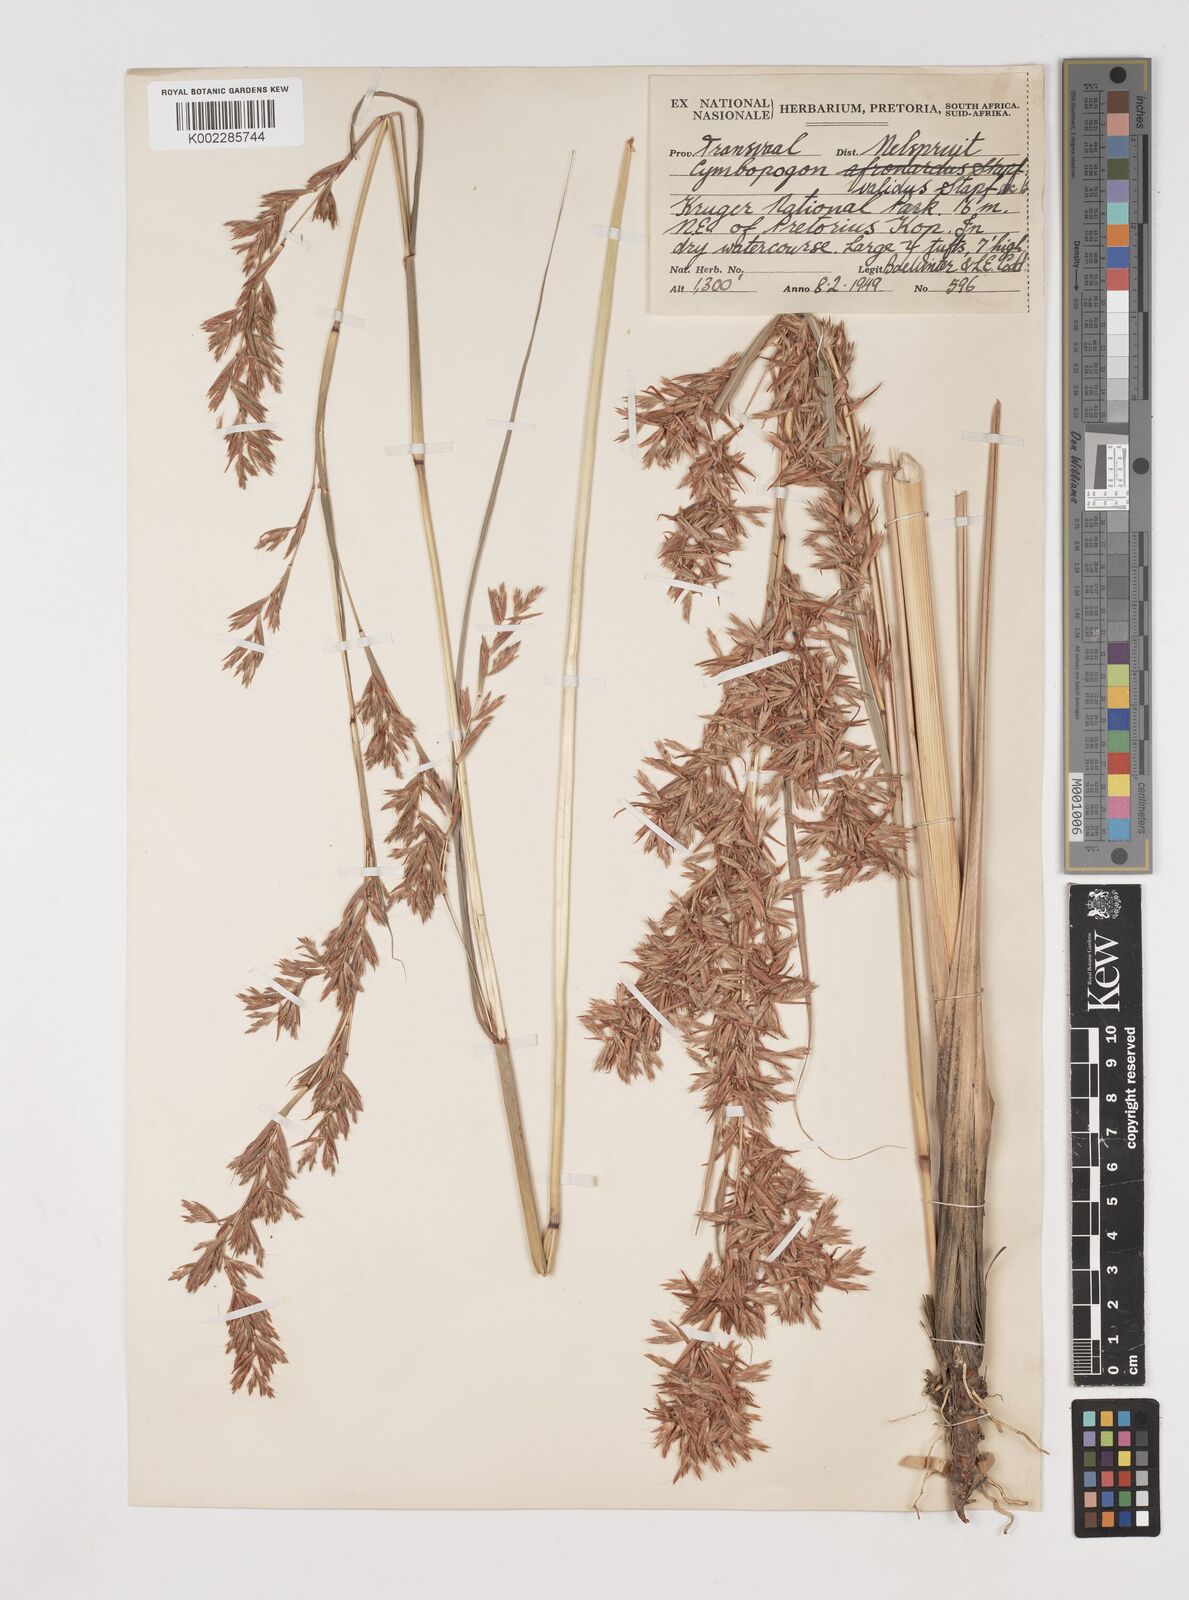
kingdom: Plantae
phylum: Tracheophyta
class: Liliopsida
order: Poales
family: Poaceae
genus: Cymbopogon
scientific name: Cymbopogon nardus
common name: Giant turpentine grass
